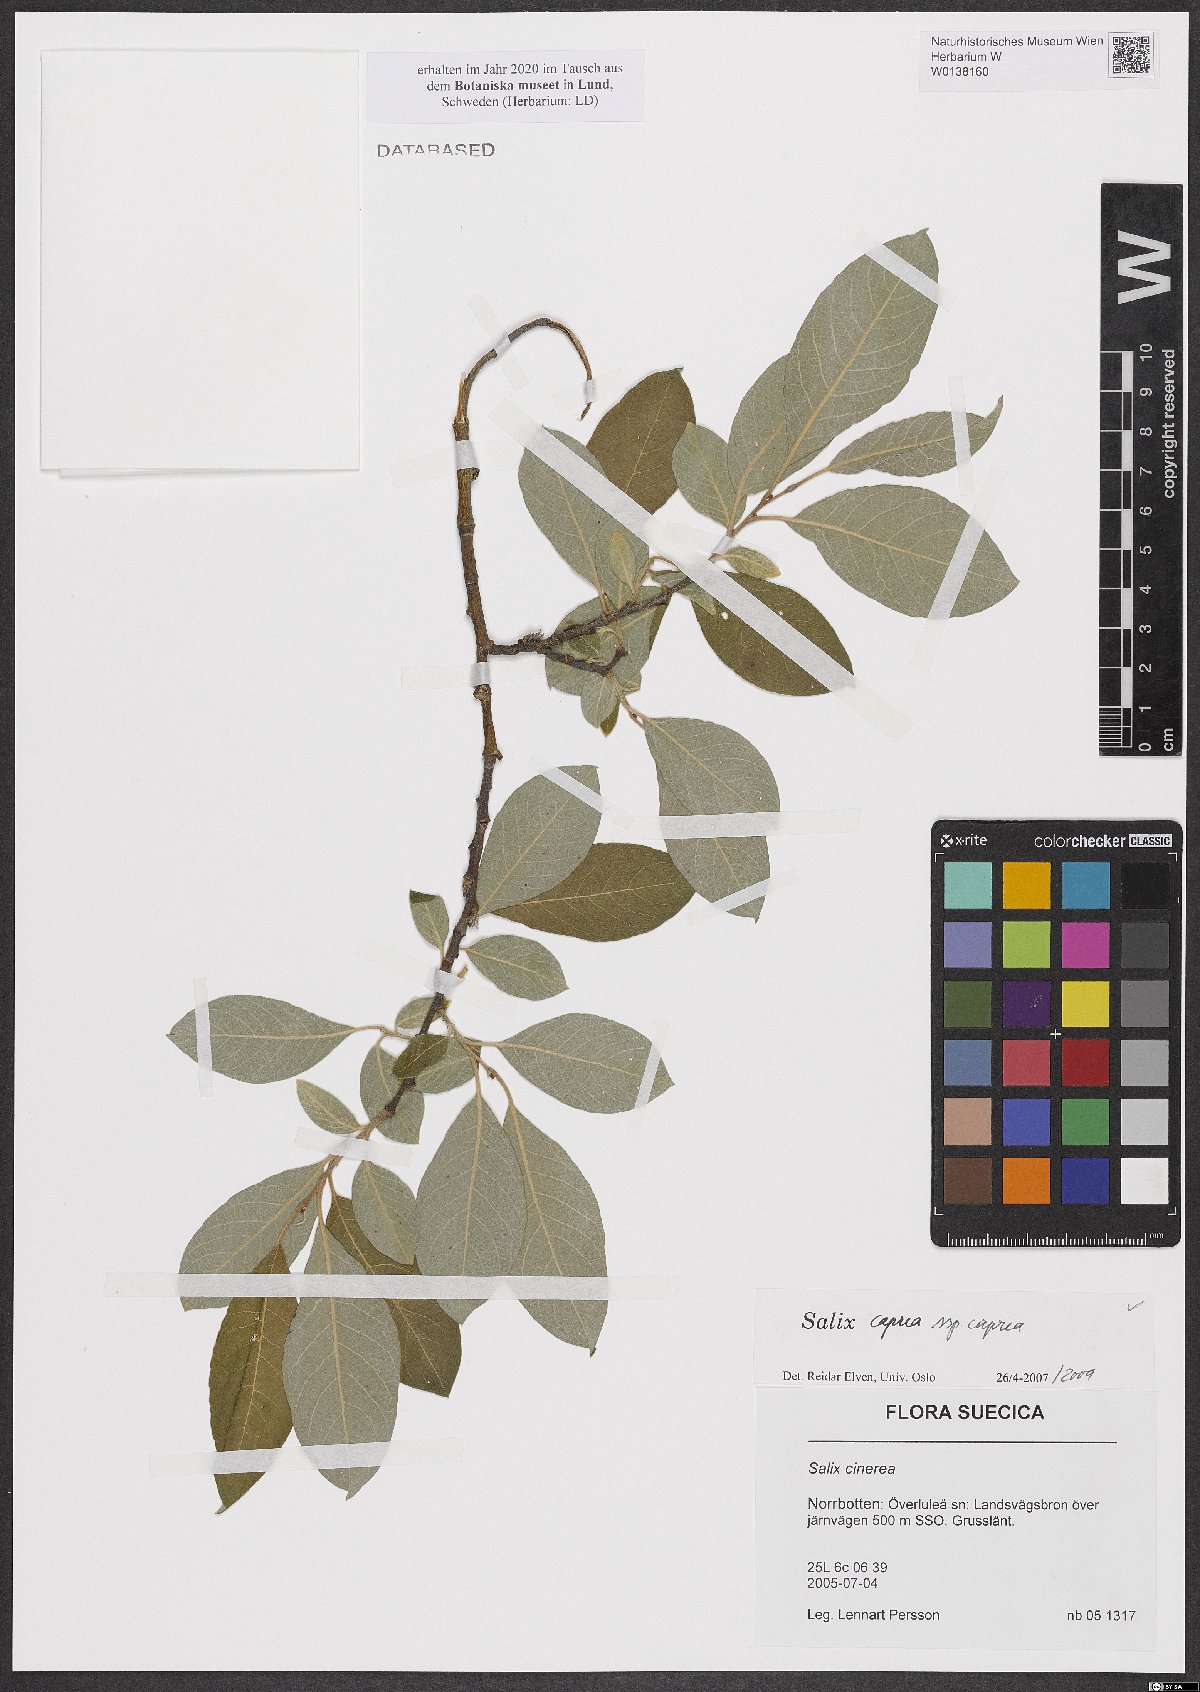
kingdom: Plantae
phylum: Tracheophyta
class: Magnoliopsida
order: Malpighiales
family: Salicaceae
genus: Salix
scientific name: Salix caprea
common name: Goat willow
